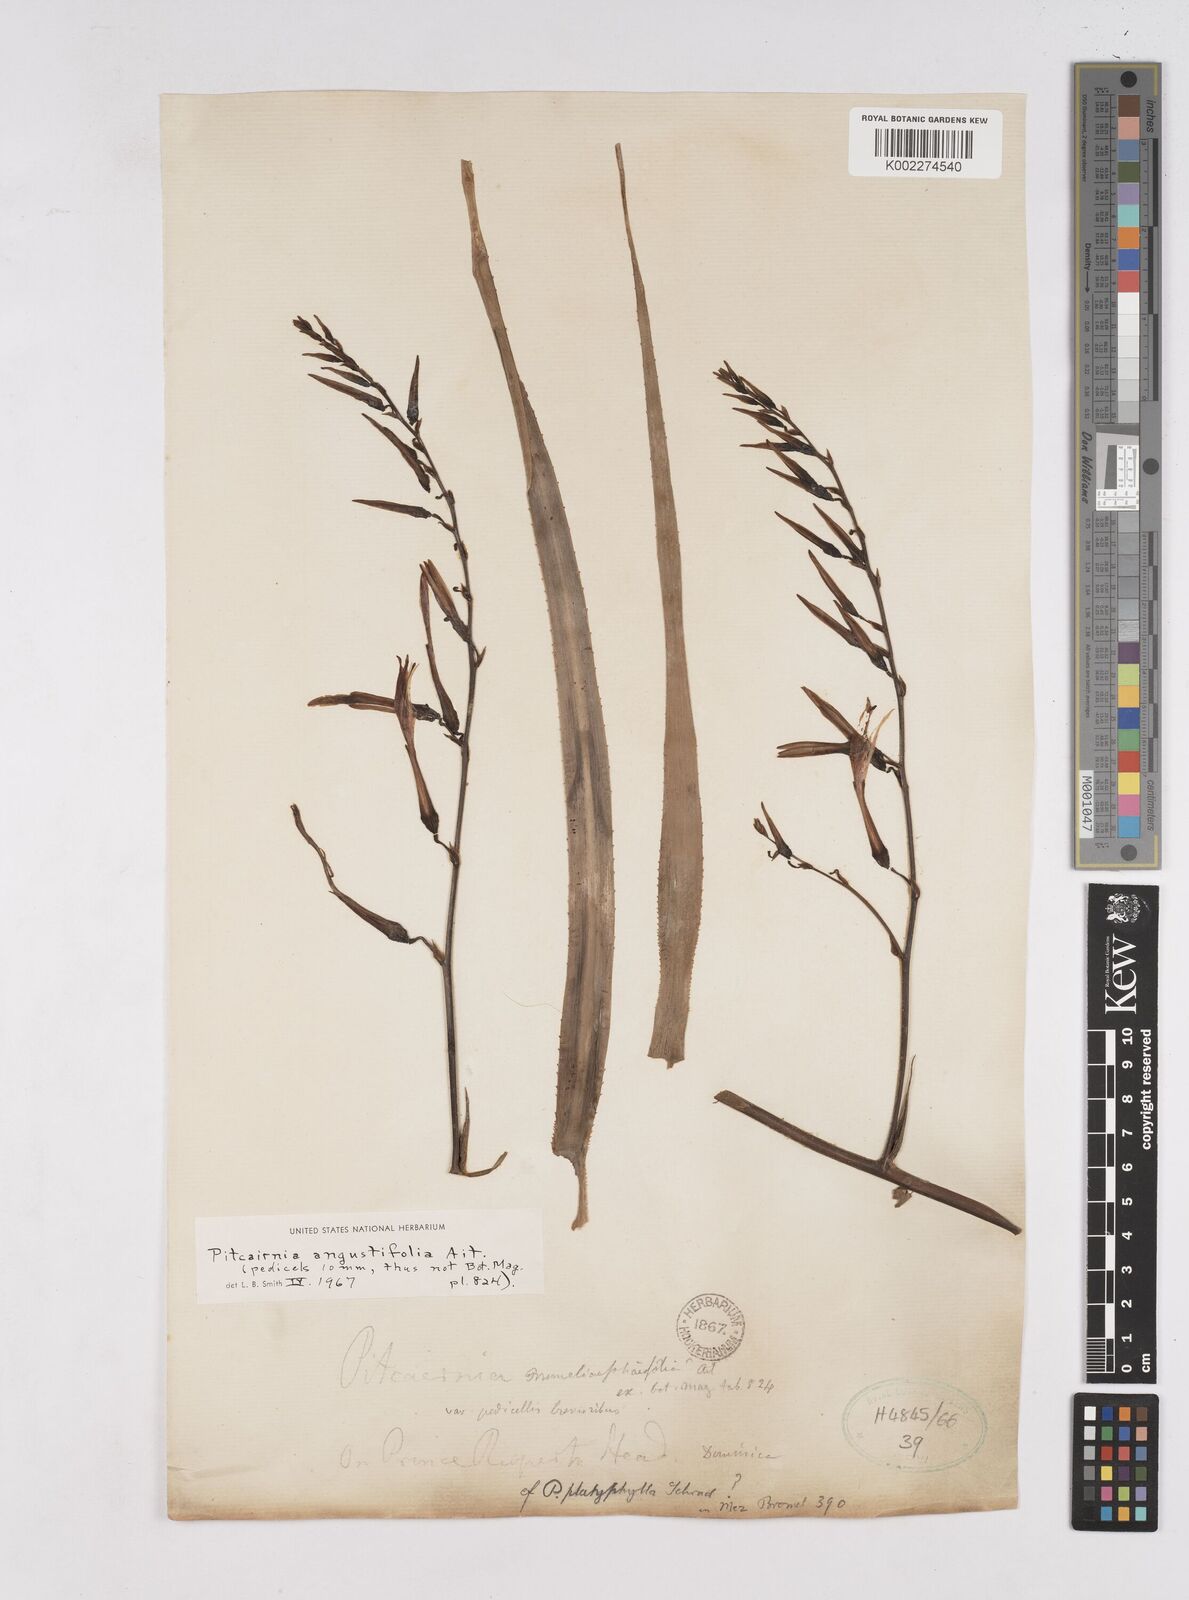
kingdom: Plantae
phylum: Tracheophyta
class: Liliopsida
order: Poales
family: Bromeliaceae
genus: Pitcairnia
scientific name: Pitcairnia angustifolia
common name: Clapper
